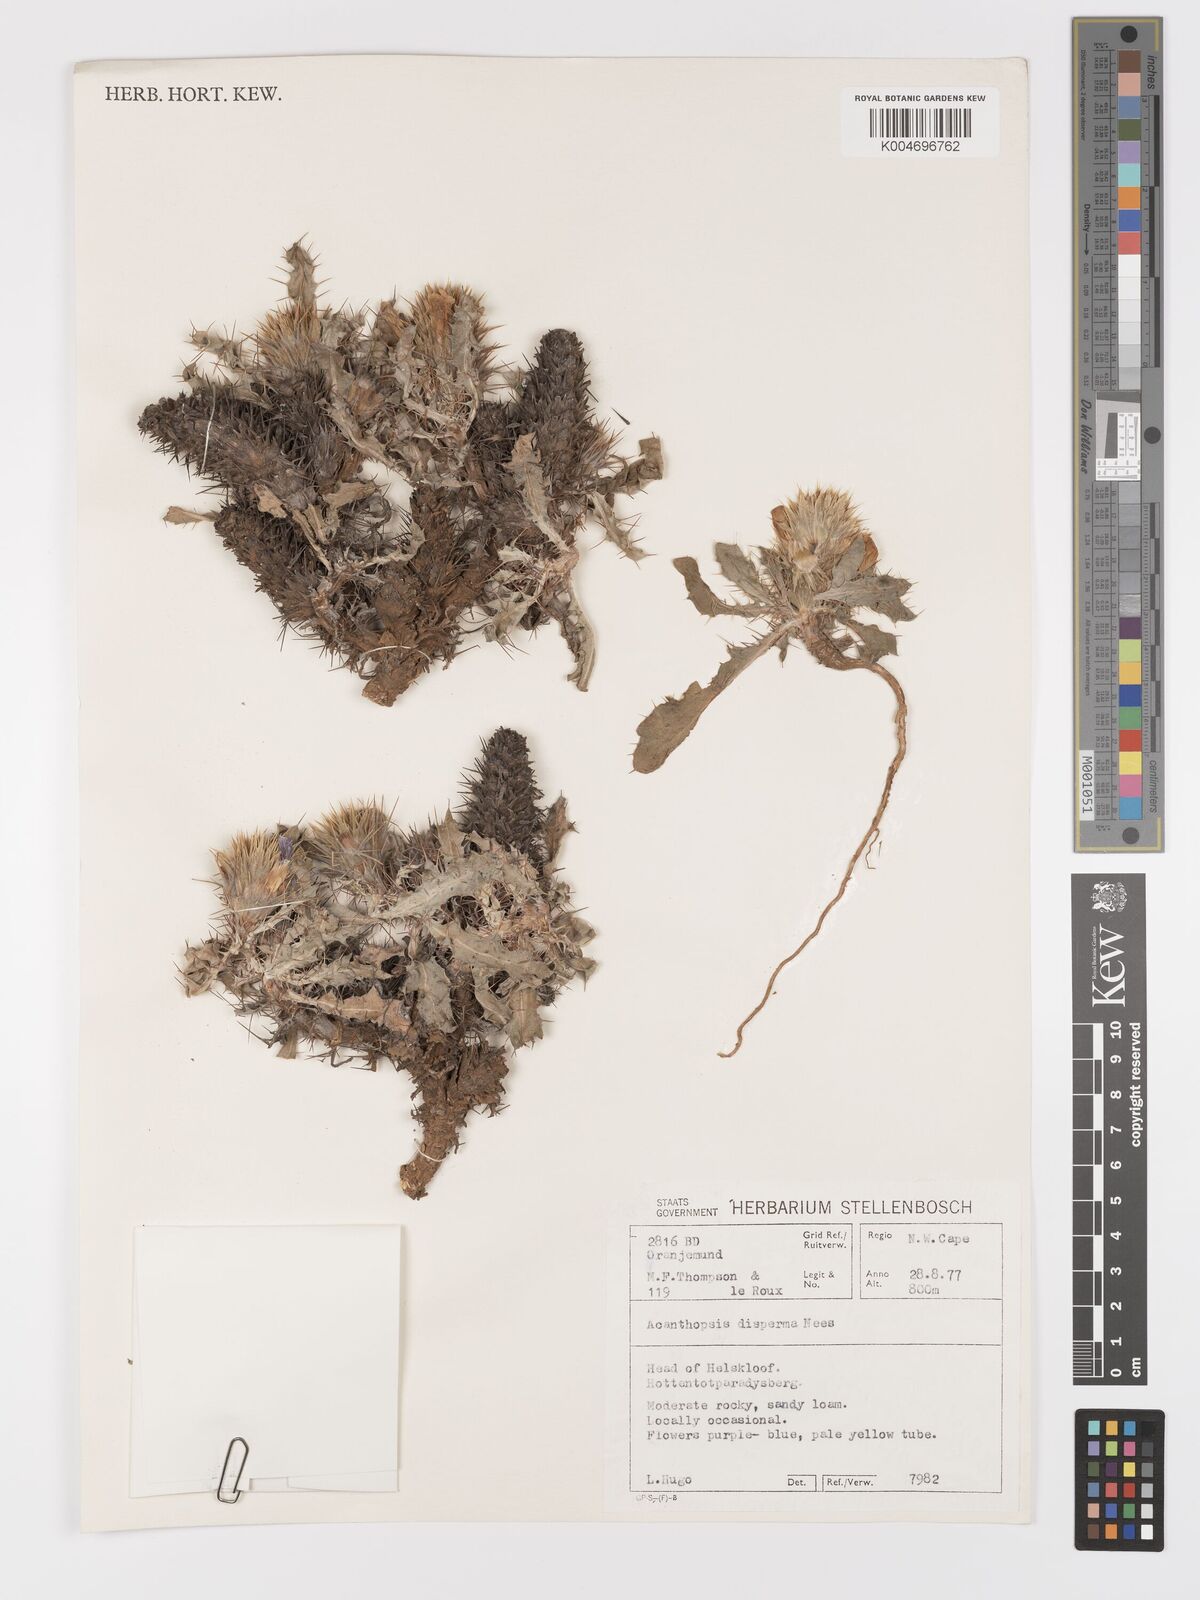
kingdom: Plantae
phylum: Tracheophyta
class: Magnoliopsida
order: Lamiales
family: Acanthaceae
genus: Acanthopsis
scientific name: Acanthopsis disperma
